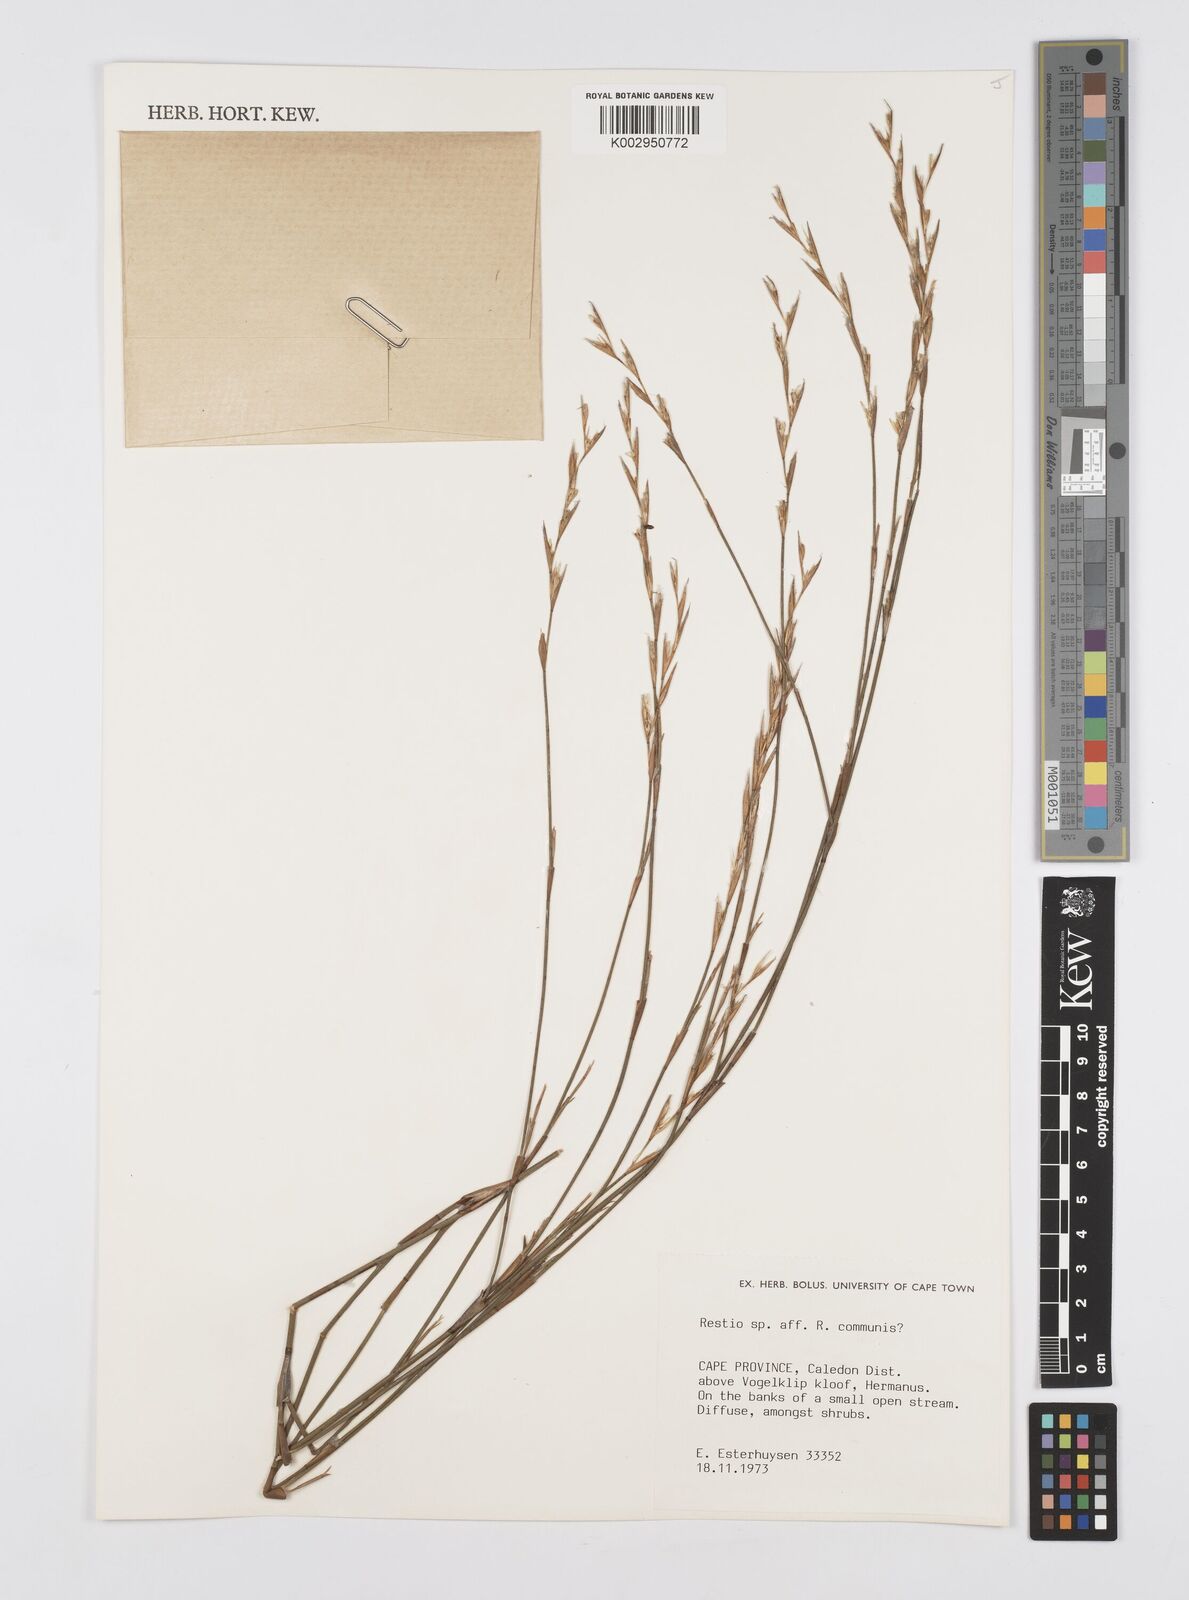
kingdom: Plantae
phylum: Tracheophyta
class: Liliopsida
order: Poales
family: Restionaceae
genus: Restio
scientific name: Restio communis
